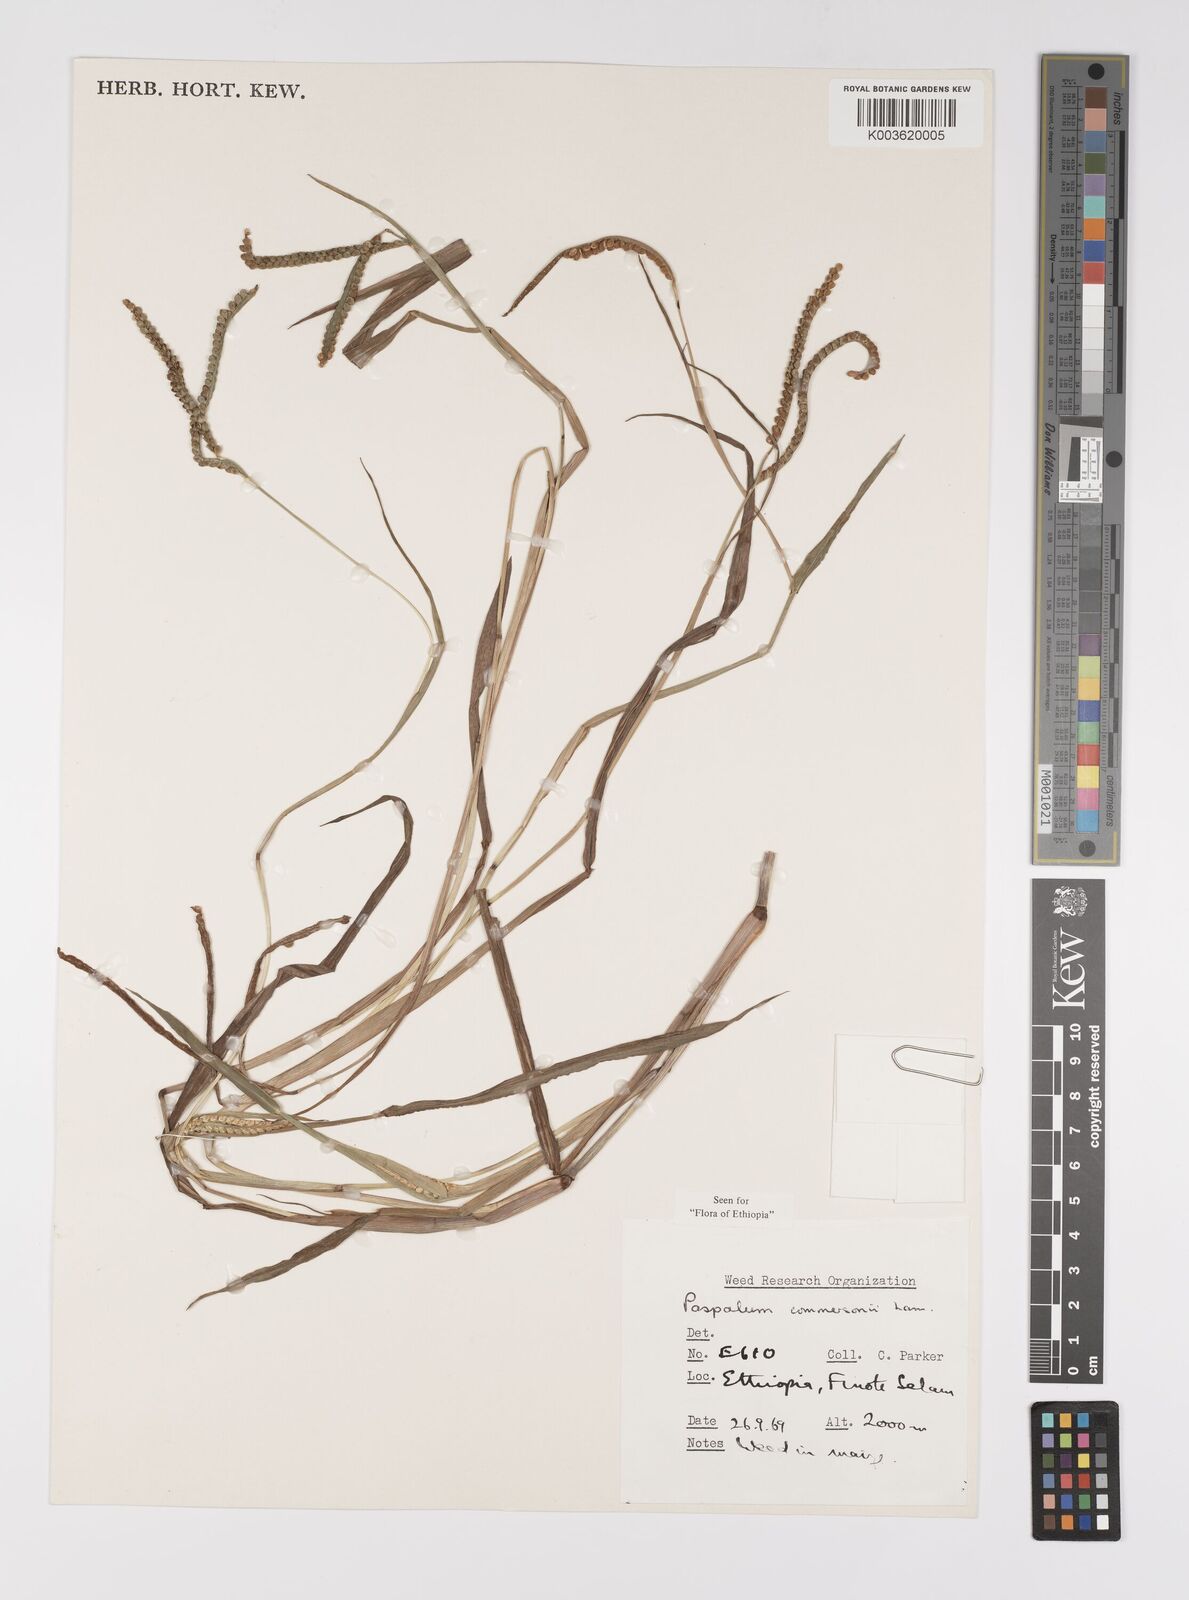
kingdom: Plantae
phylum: Tracheophyta
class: Liliopsida
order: Poales
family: Poaceae
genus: Paspalum
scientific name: Paspalum scrobiculatum
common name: Kodo millet
